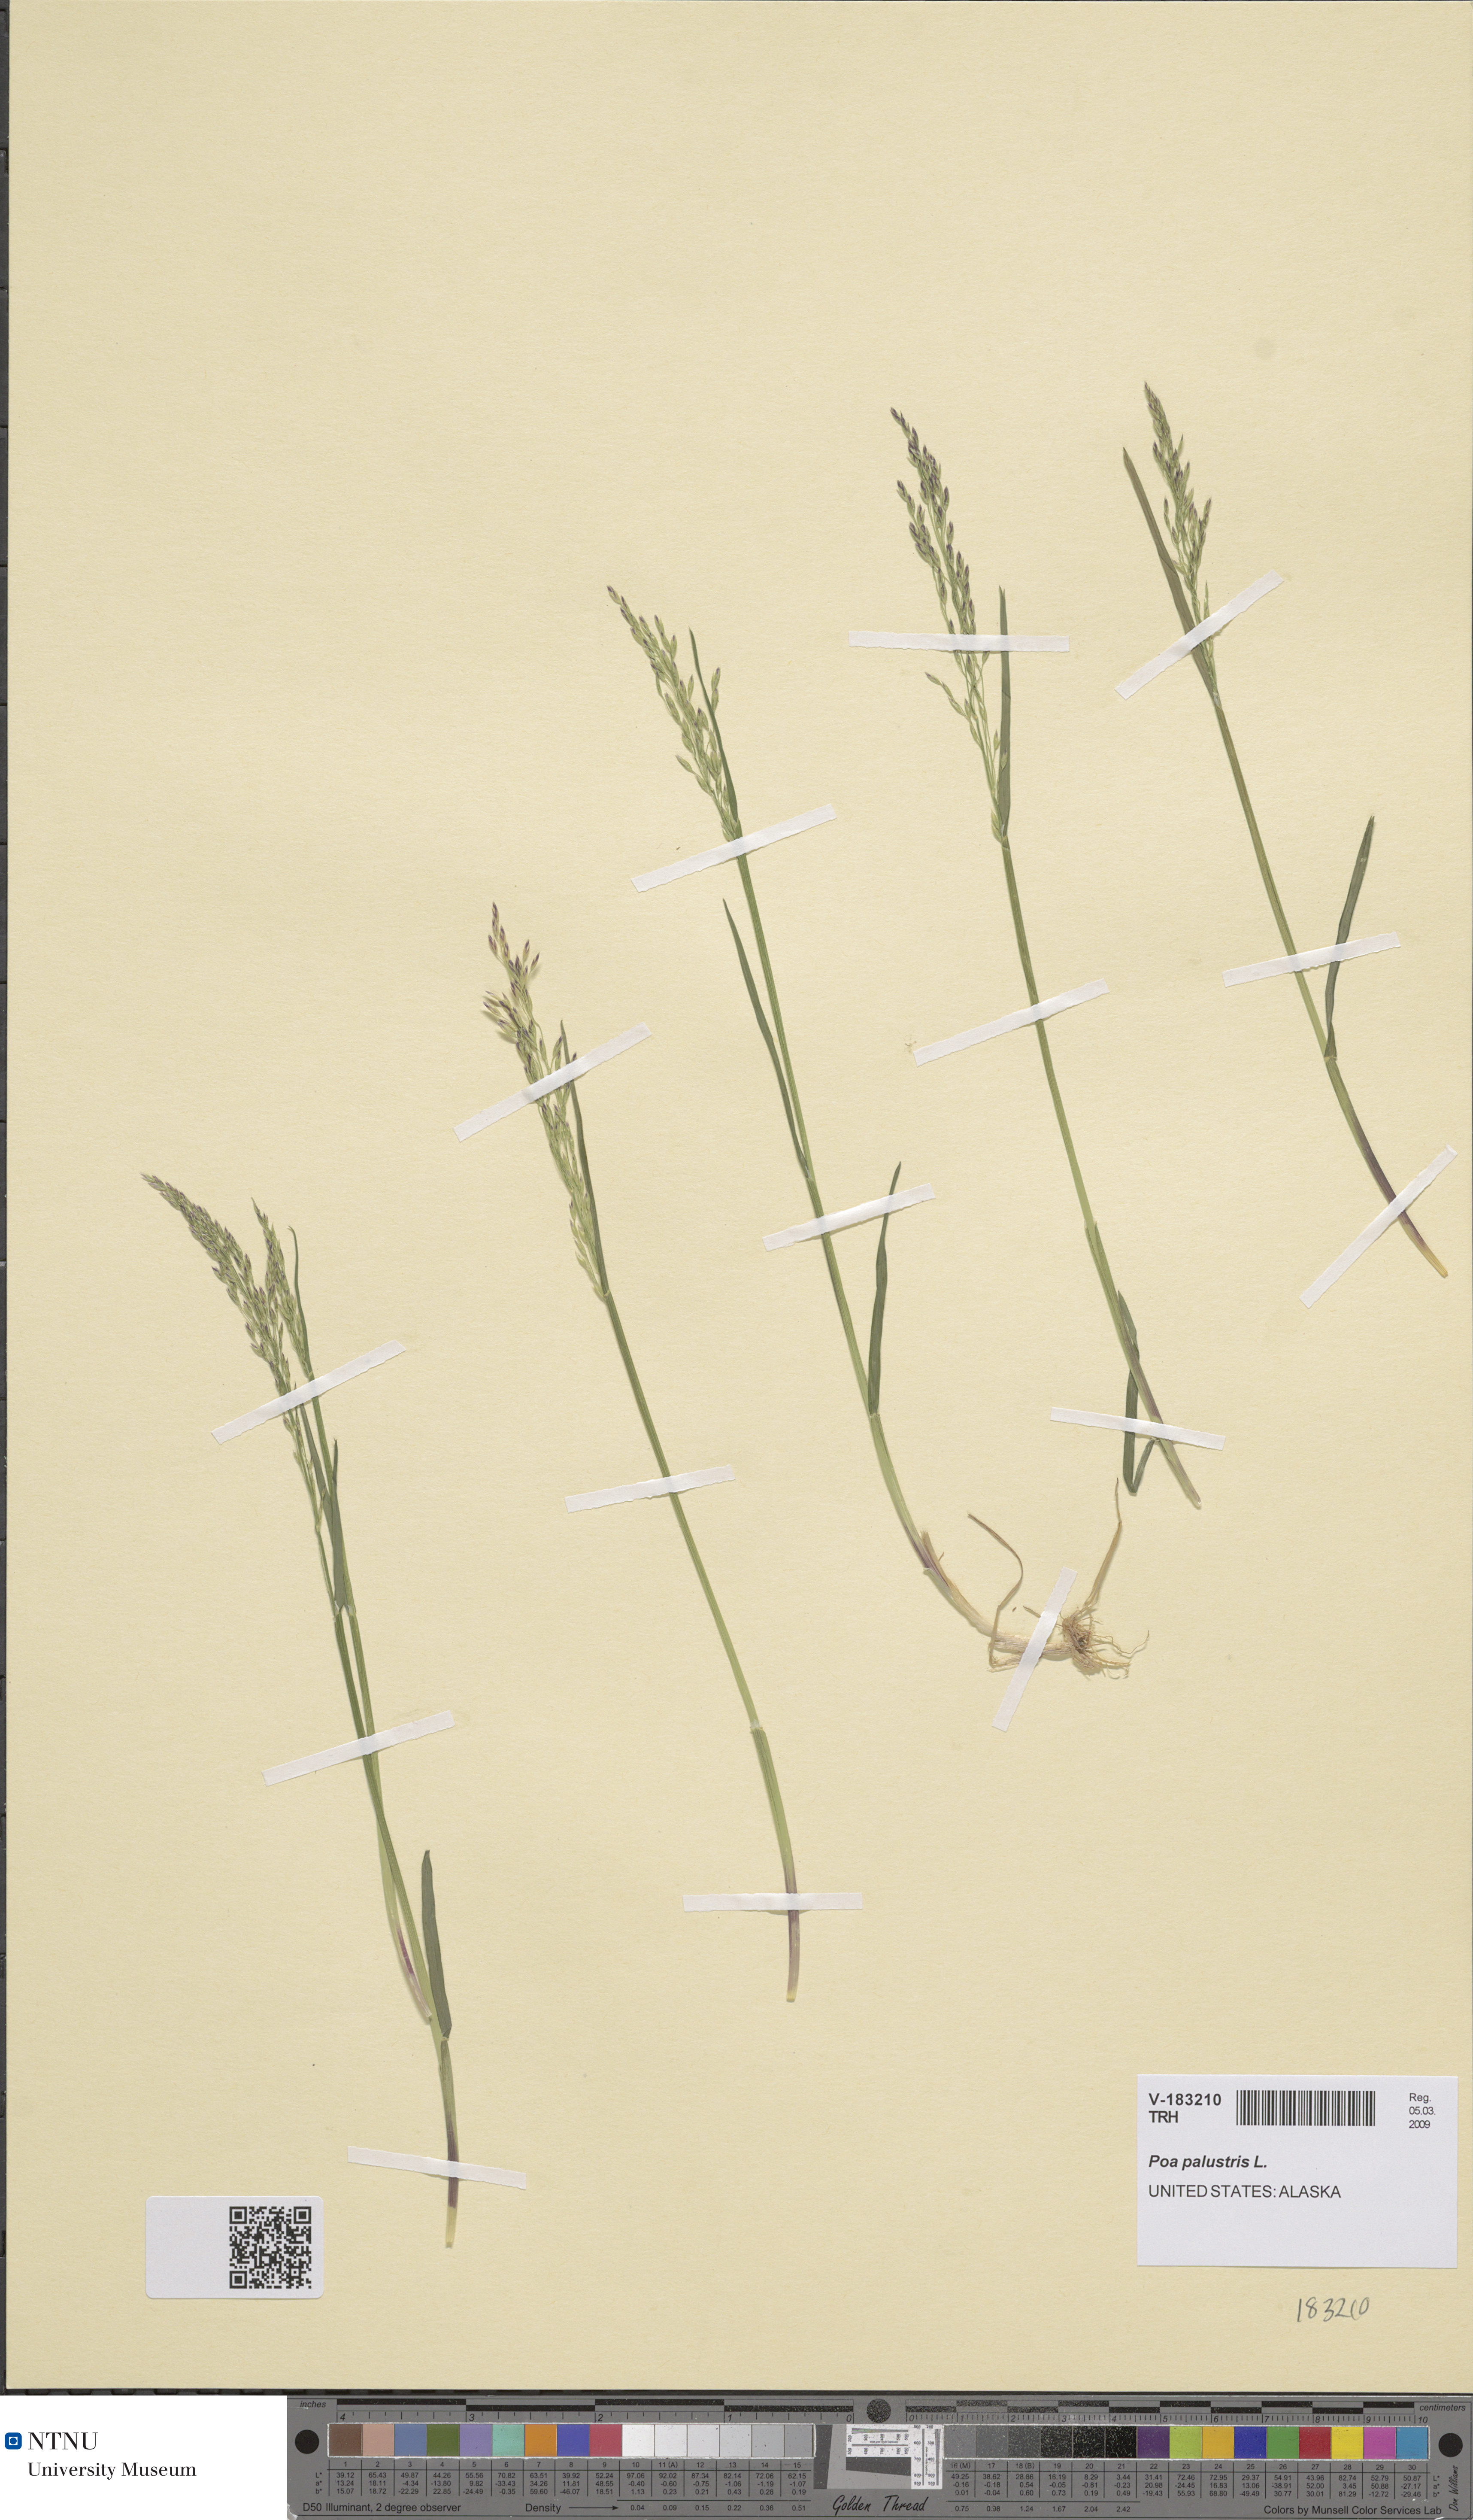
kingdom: Plantae
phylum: Tracheophyta
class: Liliopsida
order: Poales
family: Poaceae
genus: Poa
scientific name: Poa palustris
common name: Swamp meadow-grass
